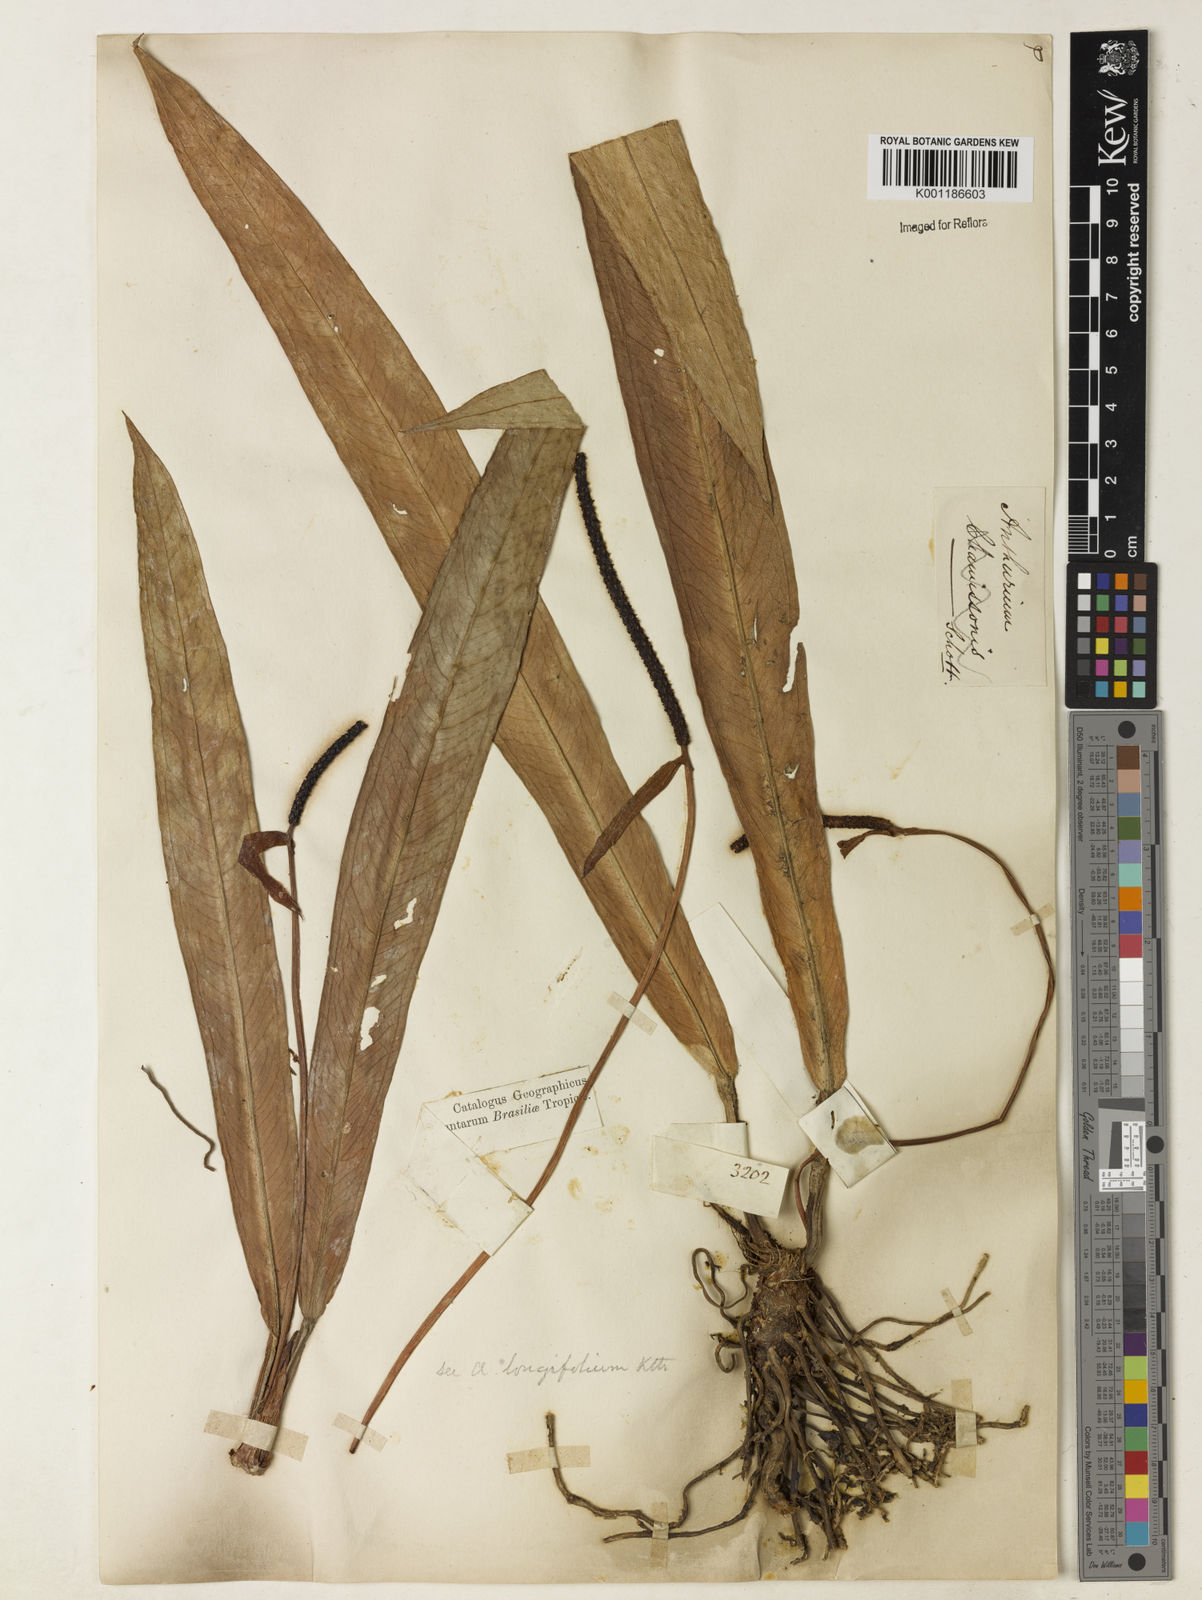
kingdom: Plantae
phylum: Tracheophyta
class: Liliopsida
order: Alismatales
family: Araceae
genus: Anthurium
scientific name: Anthurium longifolium
